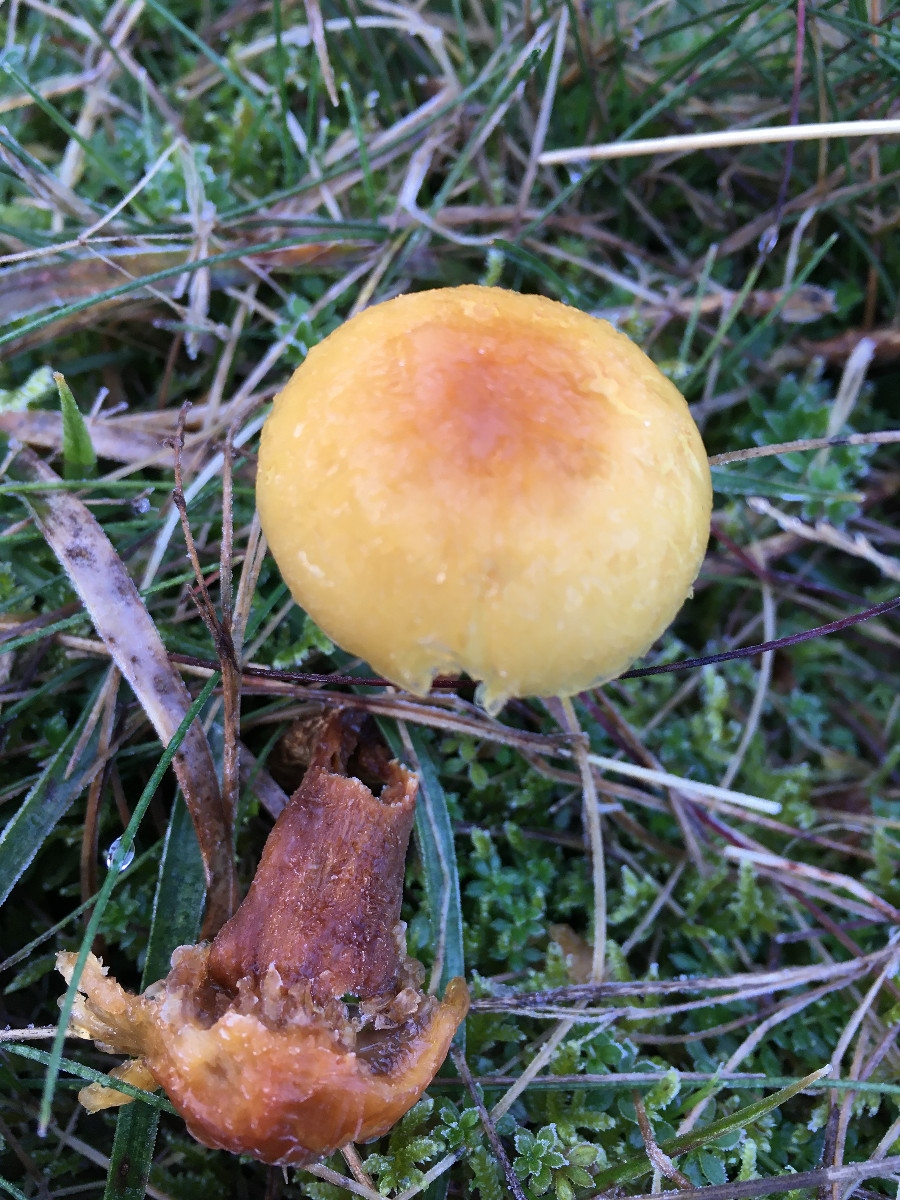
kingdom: Fungi
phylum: Basidiomycota
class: Agaricomycetes
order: Agaricales
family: Strophariaceae
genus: Hypholoma
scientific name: Hypholoma capnoides
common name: gran-svovlhat
